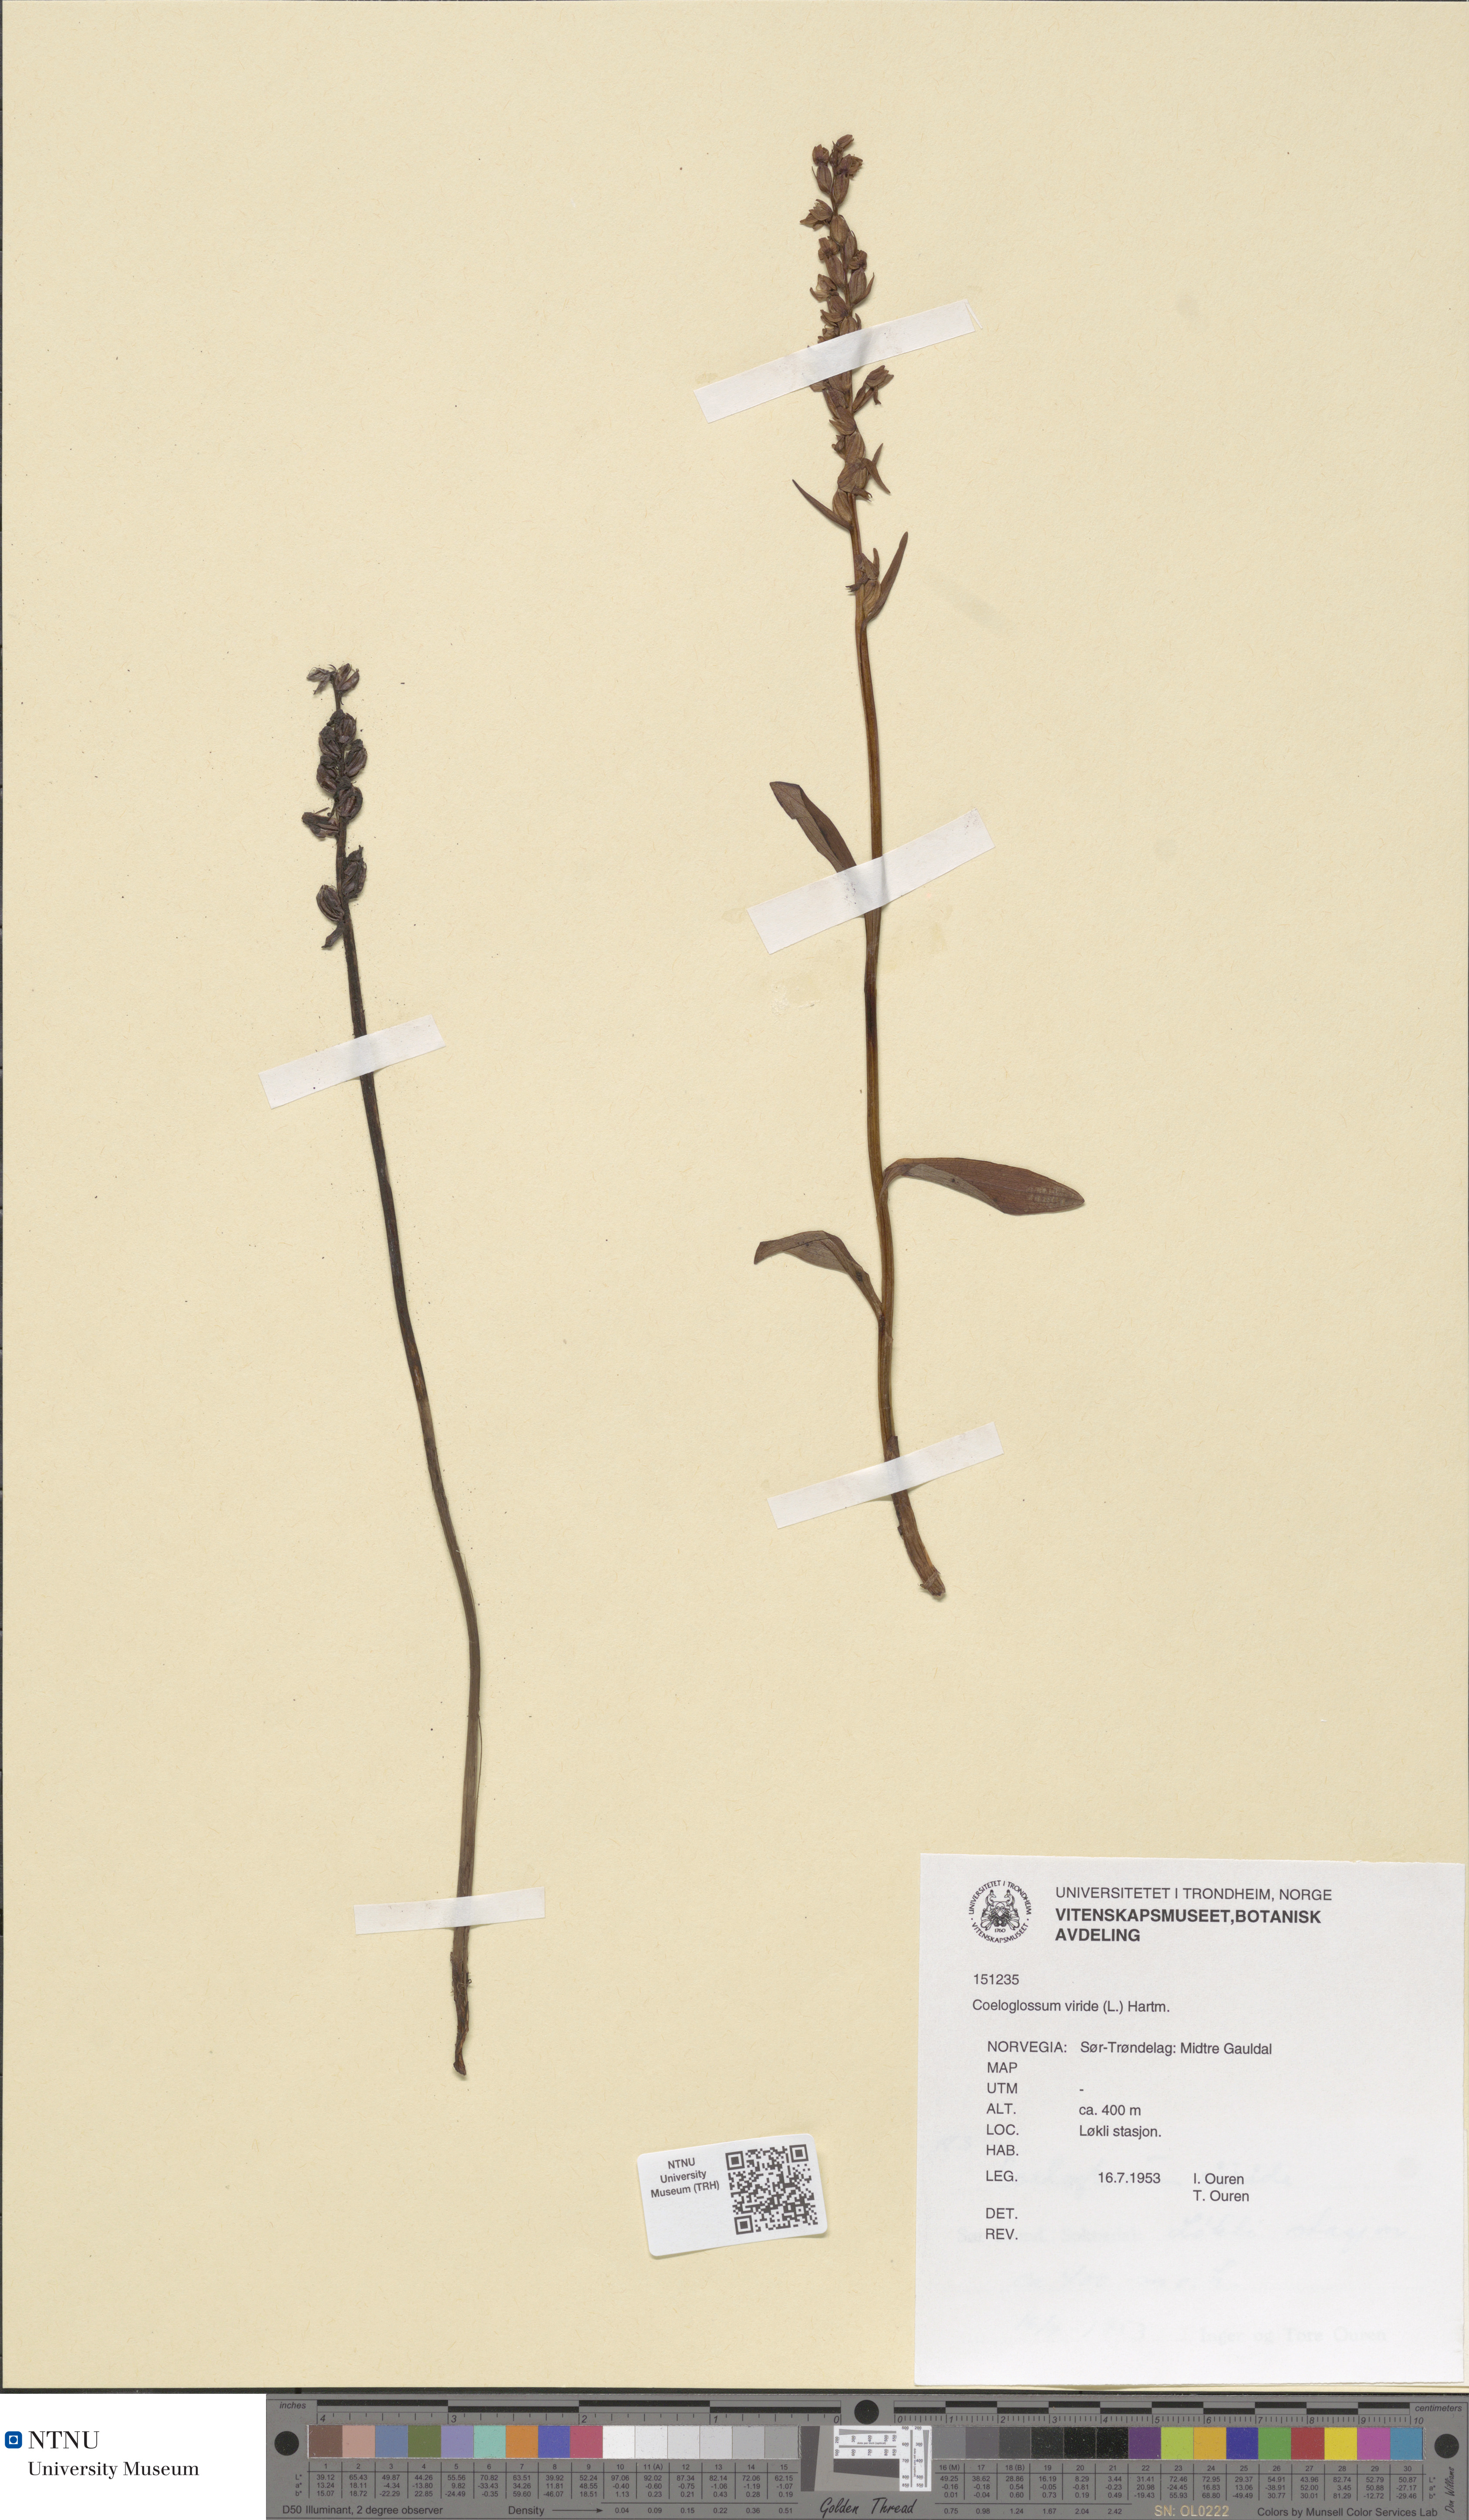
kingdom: Plantae
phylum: Tracheophyta
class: Liliopsida
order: Asparagales
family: Orchidaceae
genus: Dactylorhiza
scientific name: Dactylorhiza viridis
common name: Longbract frog orchid
